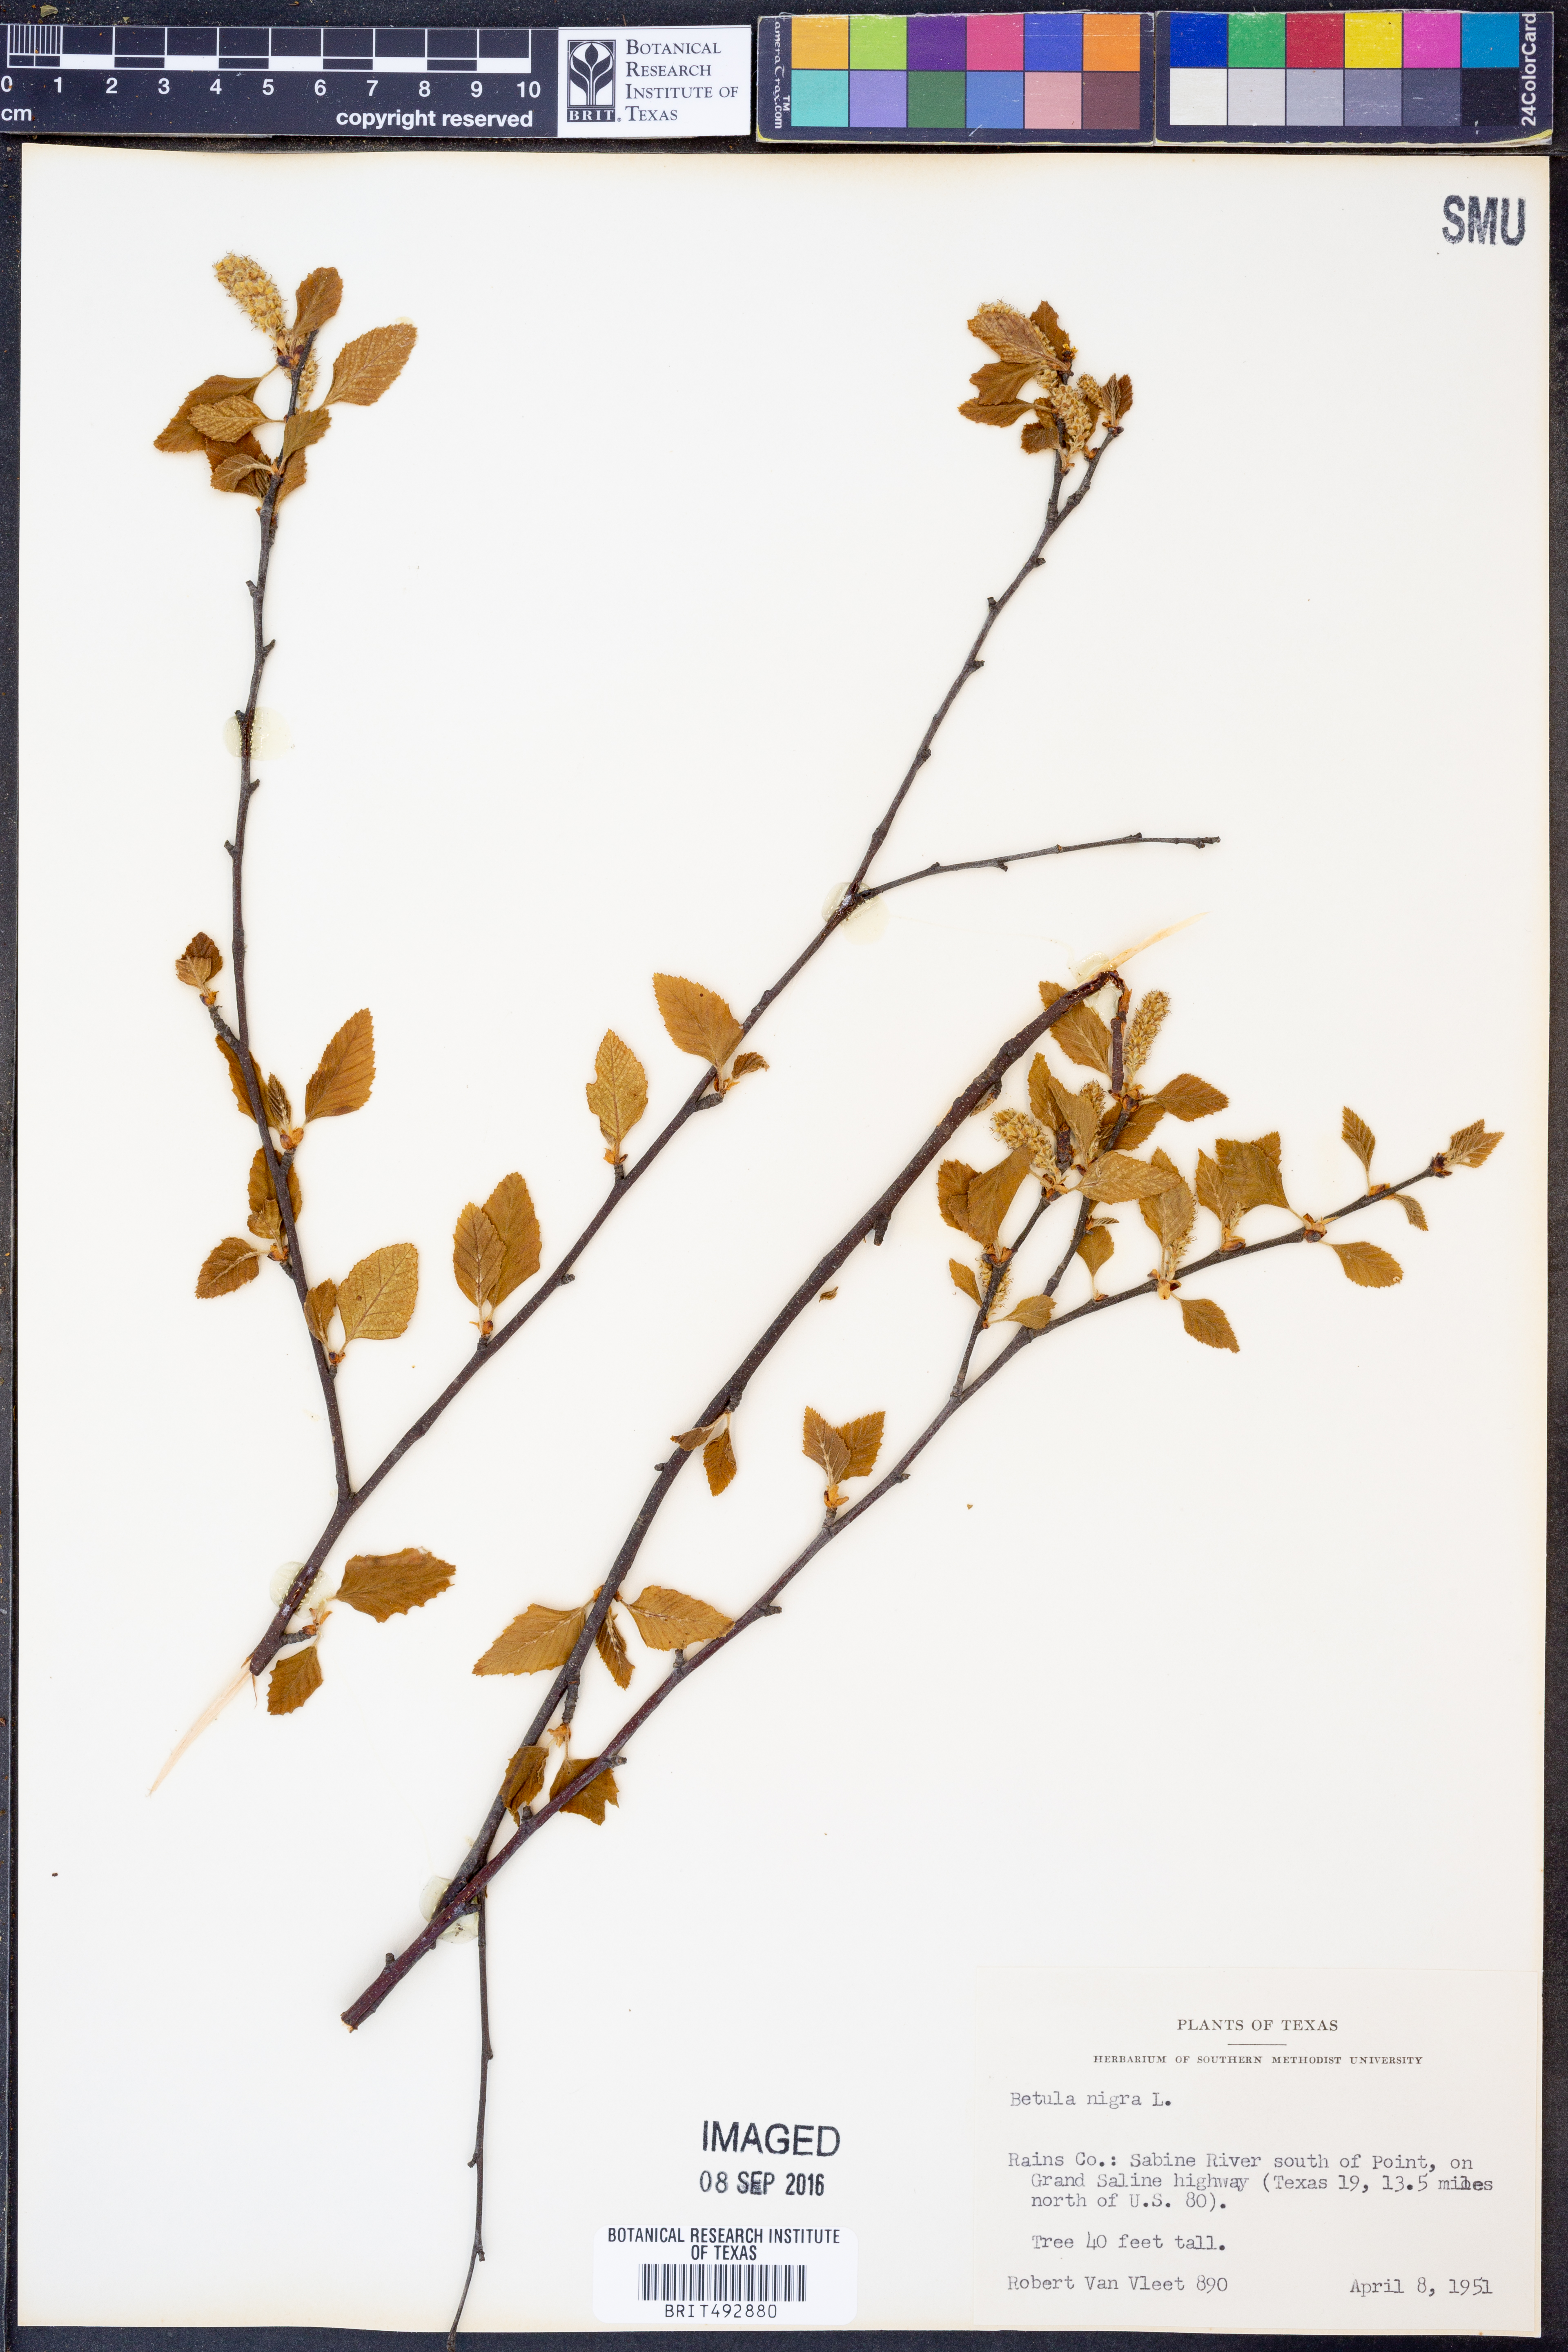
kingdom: Plantae
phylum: Tracheophyta
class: Magnoliopsida
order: Fagales
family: Betulaceae
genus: Betula
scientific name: Betula nigra
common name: Black birch
